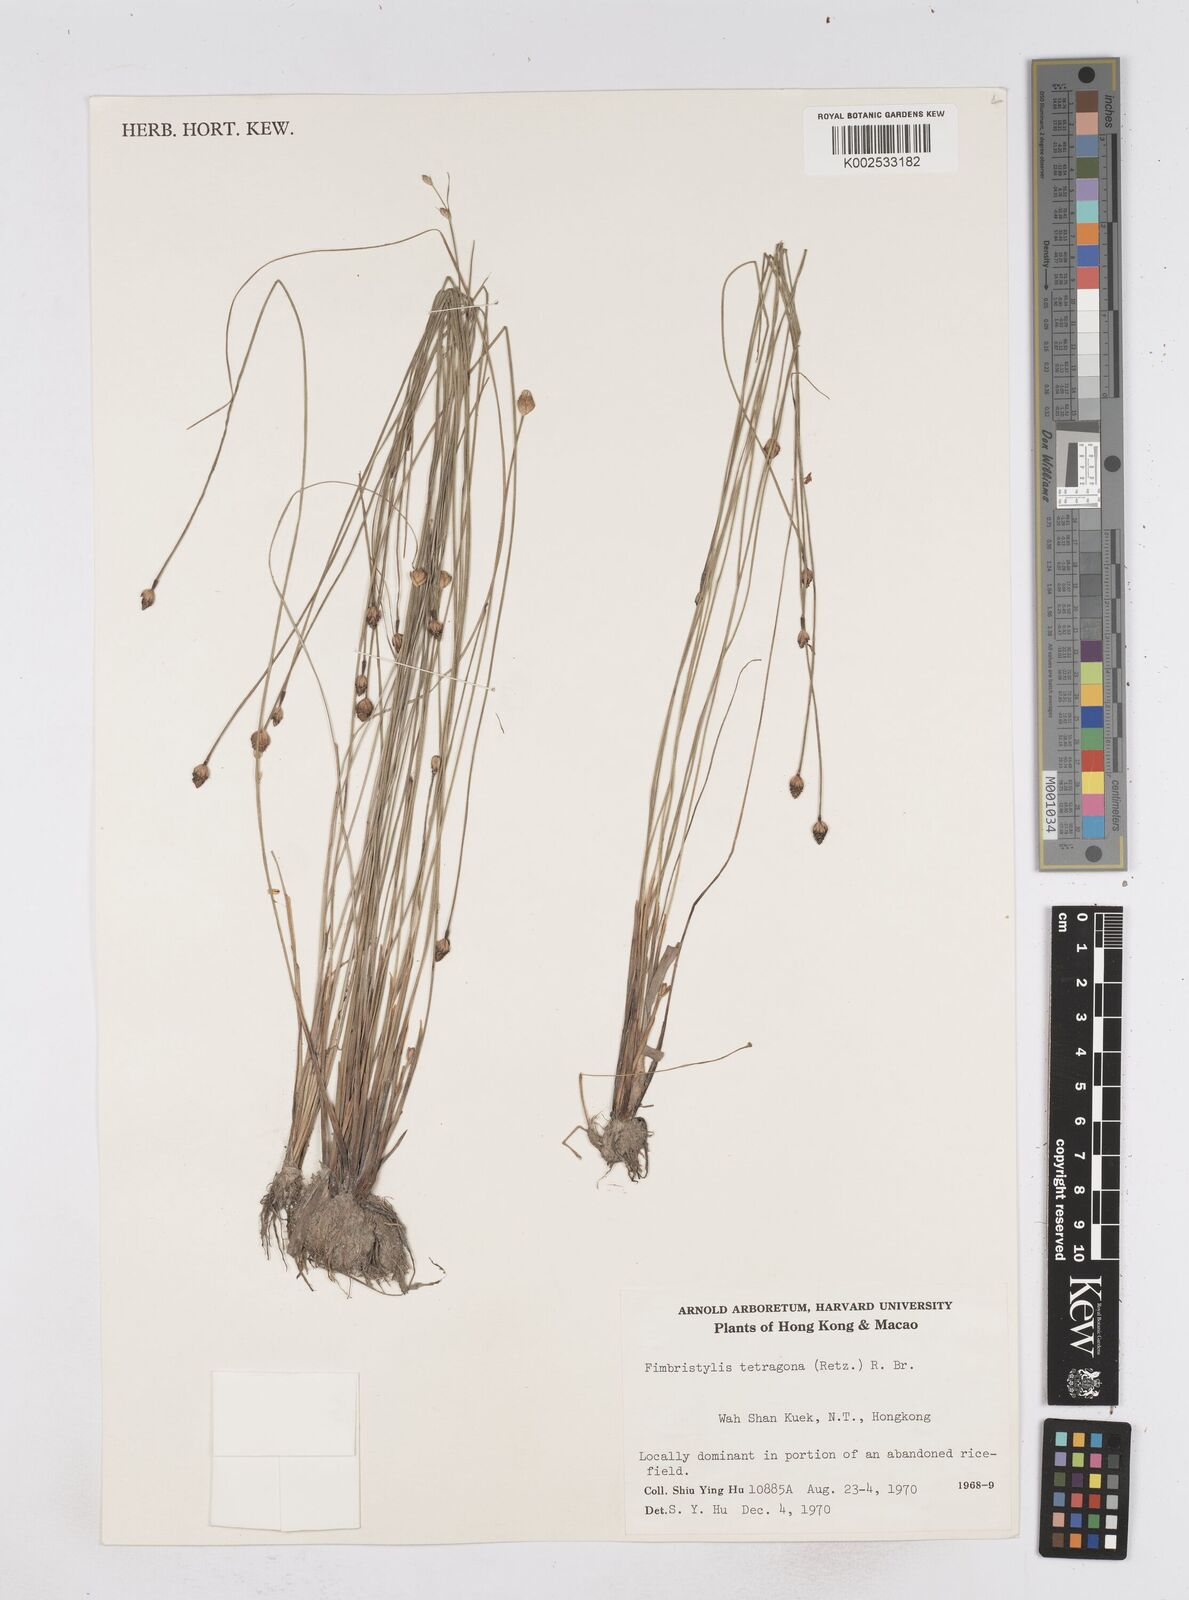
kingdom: Plantae
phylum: Tracheophyta
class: Liliopsida
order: Poales
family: Cyperaceae
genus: Fimbristylis
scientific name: Fimbristylis tetragona
